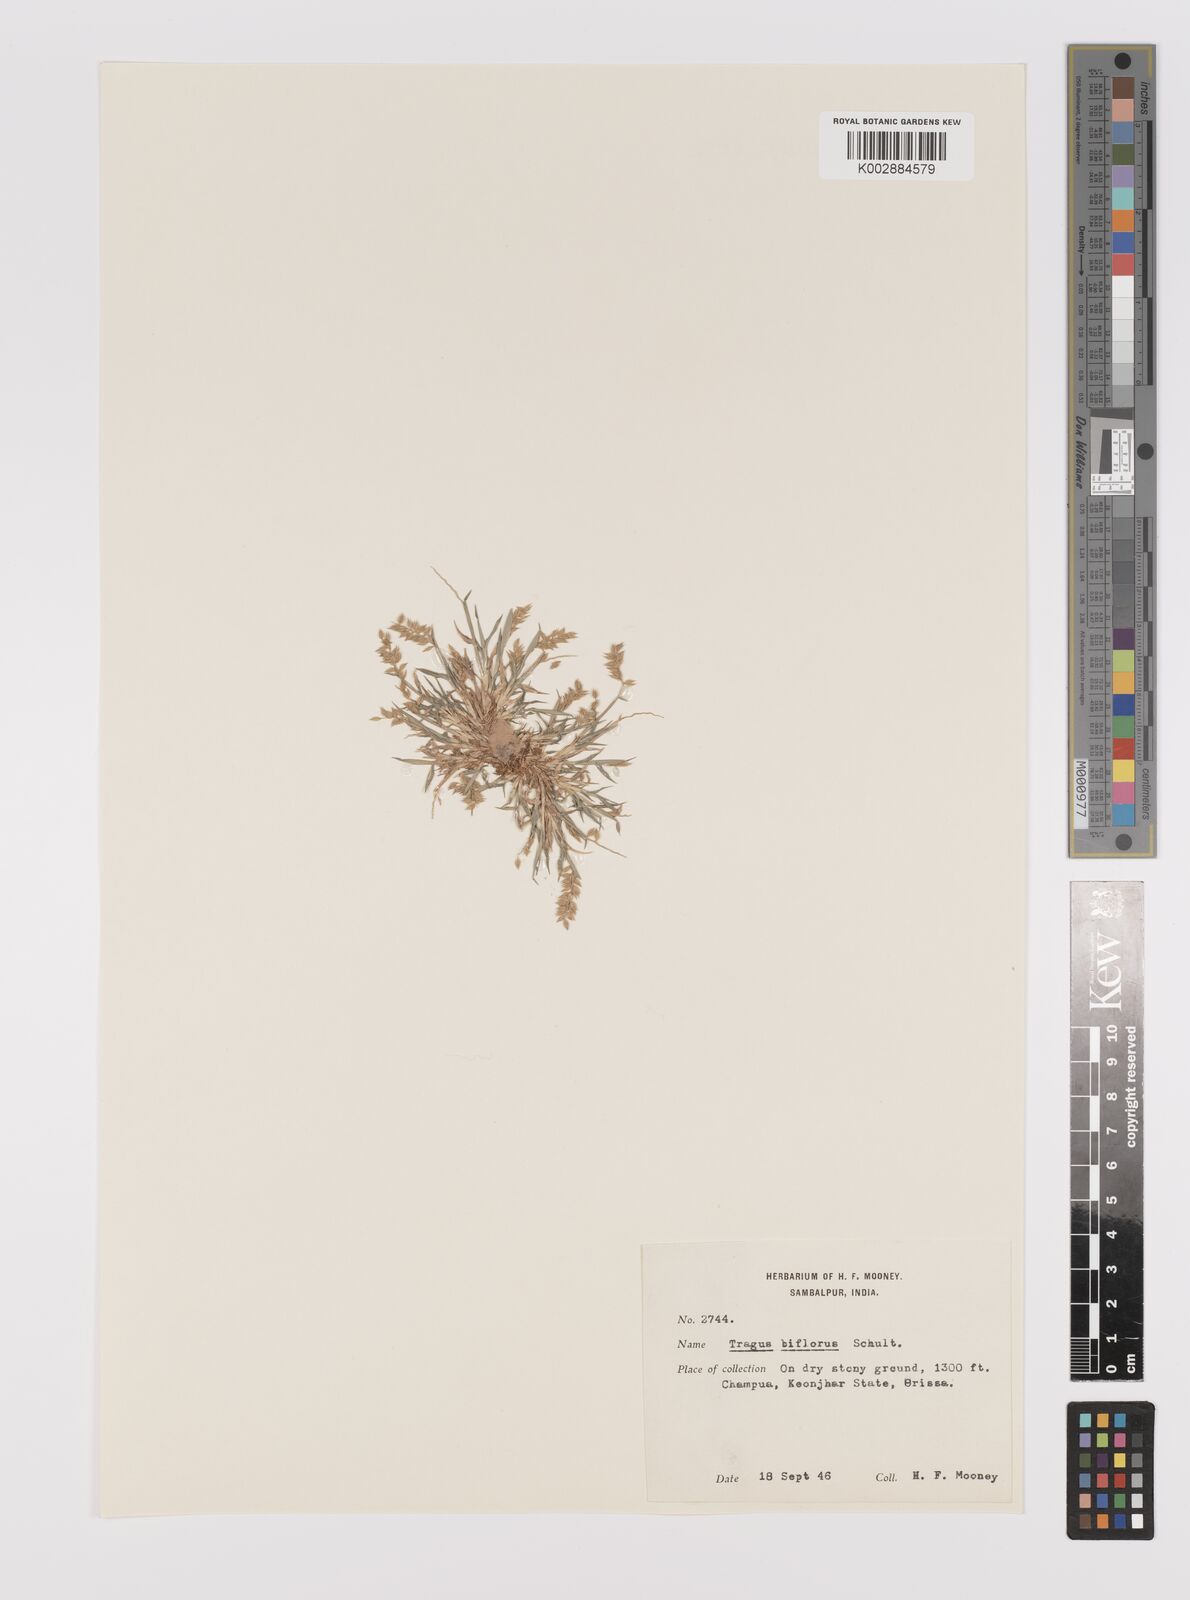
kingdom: Plantae
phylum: Tracheophyta
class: Liliopsida
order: Poales
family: Poaceae
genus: Tragus
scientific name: Tragus mongolorum
